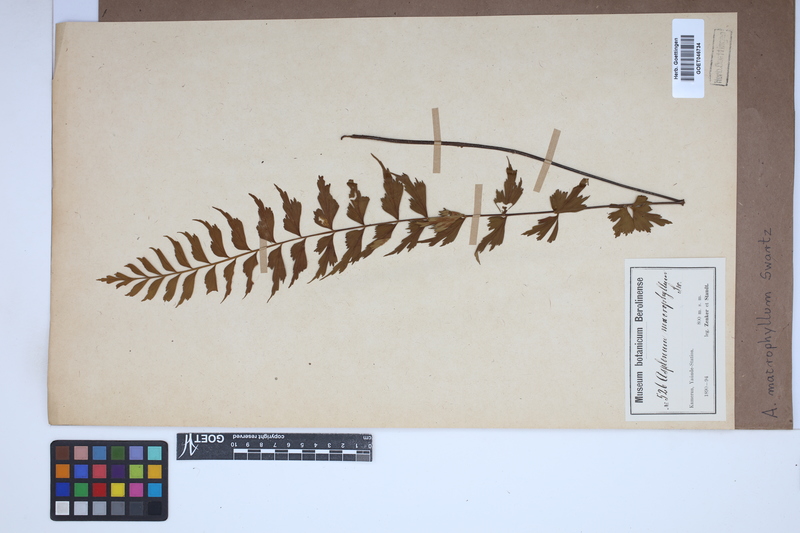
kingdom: Plantae
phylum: Tracheophyta
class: Polypodiopsida
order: Polypodiales
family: Aspleniaceae
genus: Asplenium
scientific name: Asplenium macrophyllum
